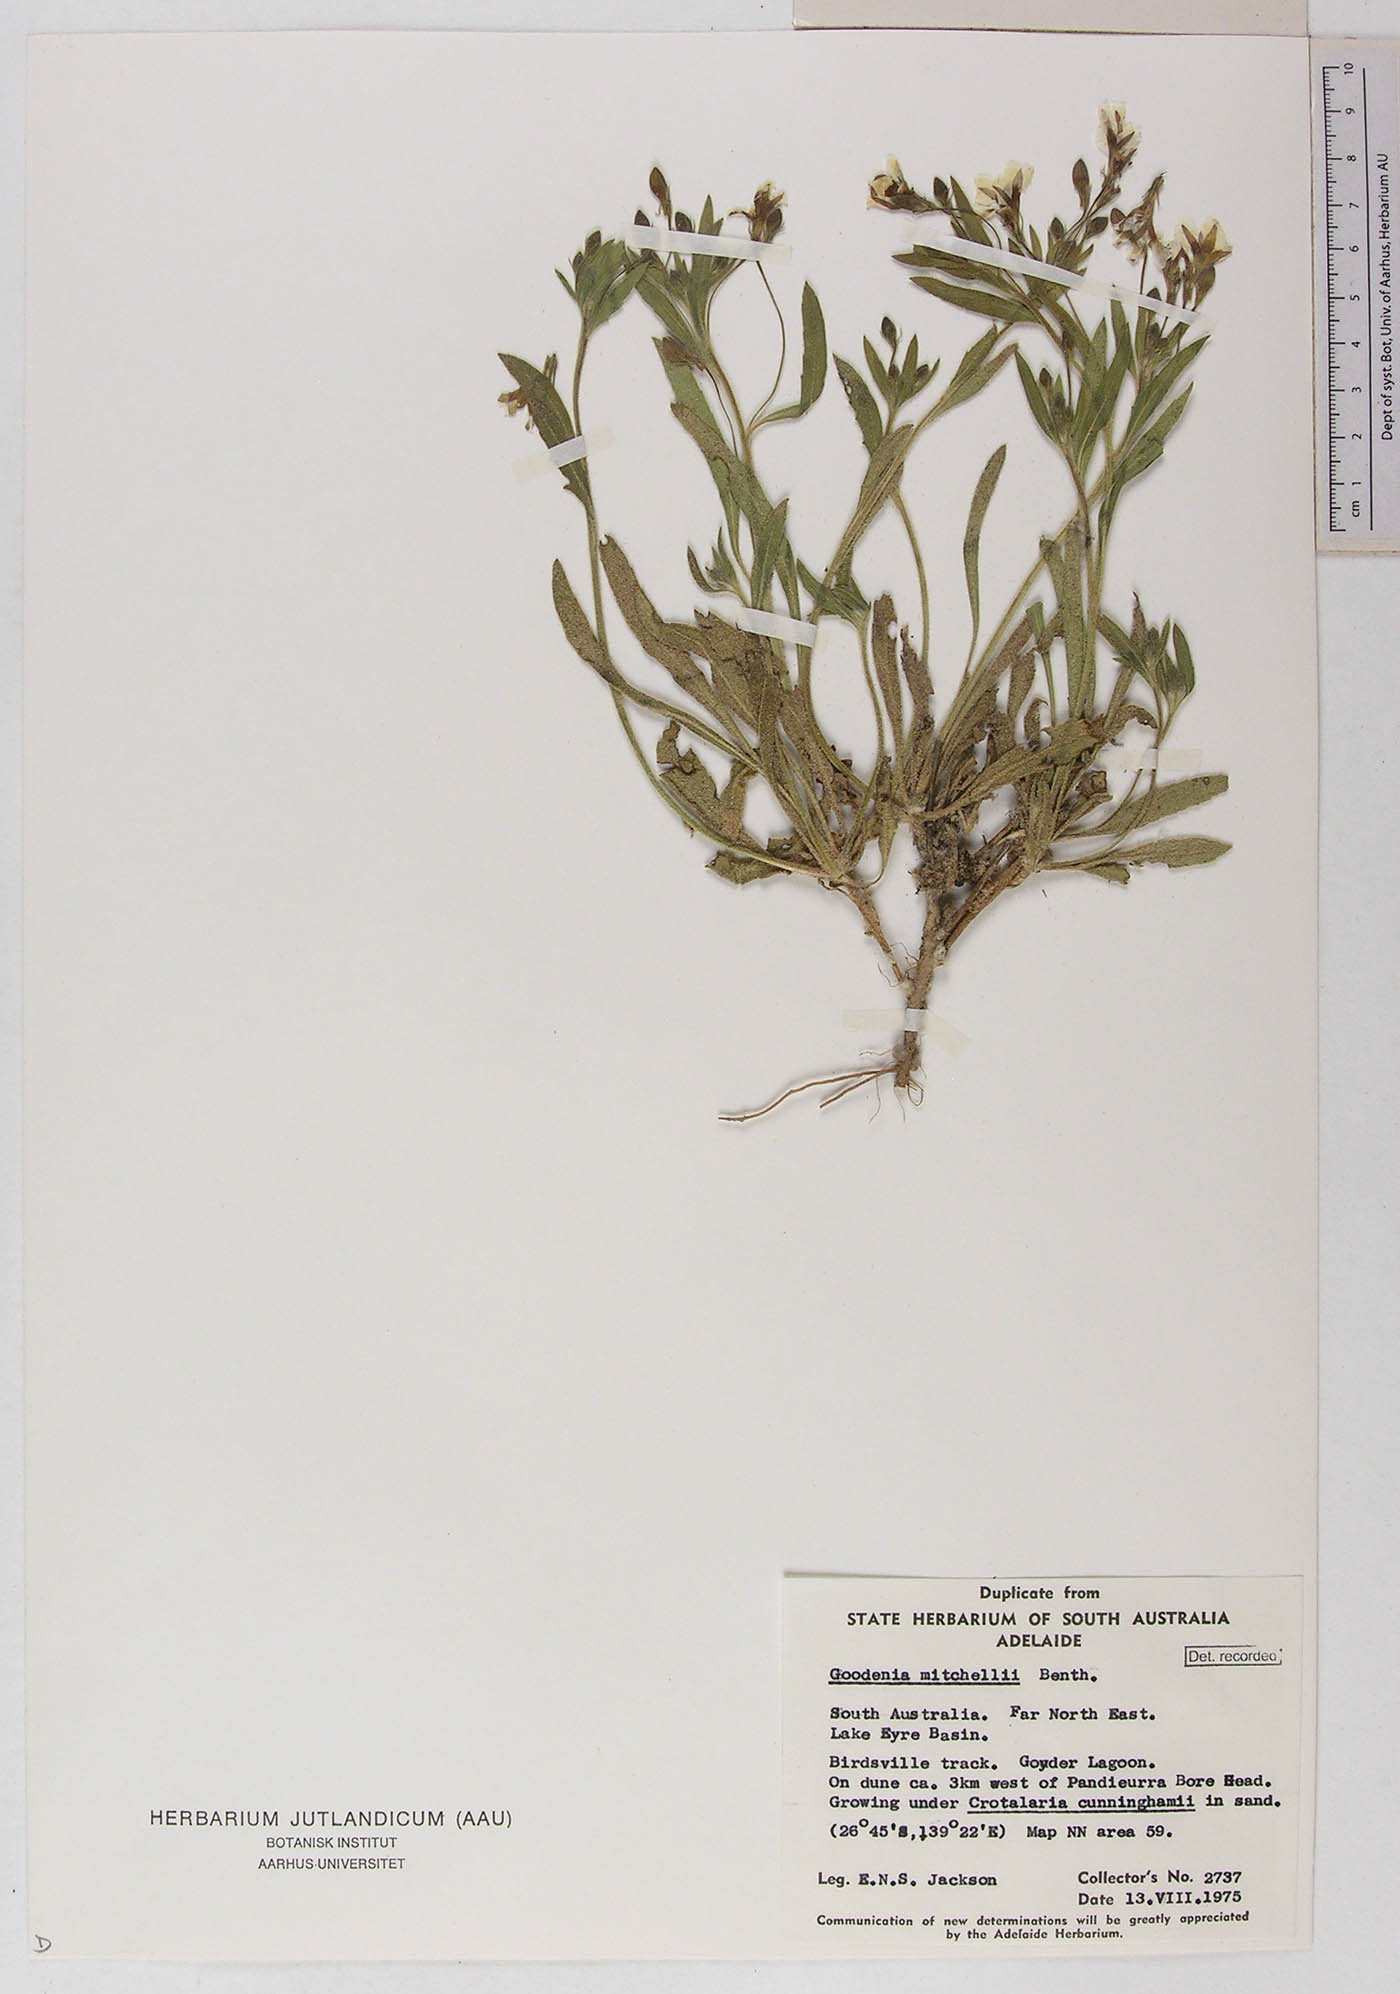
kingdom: Plantae
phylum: Tracheophyta
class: Magnoliopsida
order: Asterales
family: Goodeniaceae
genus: Goodenia
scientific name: Goodenia cycloptera
